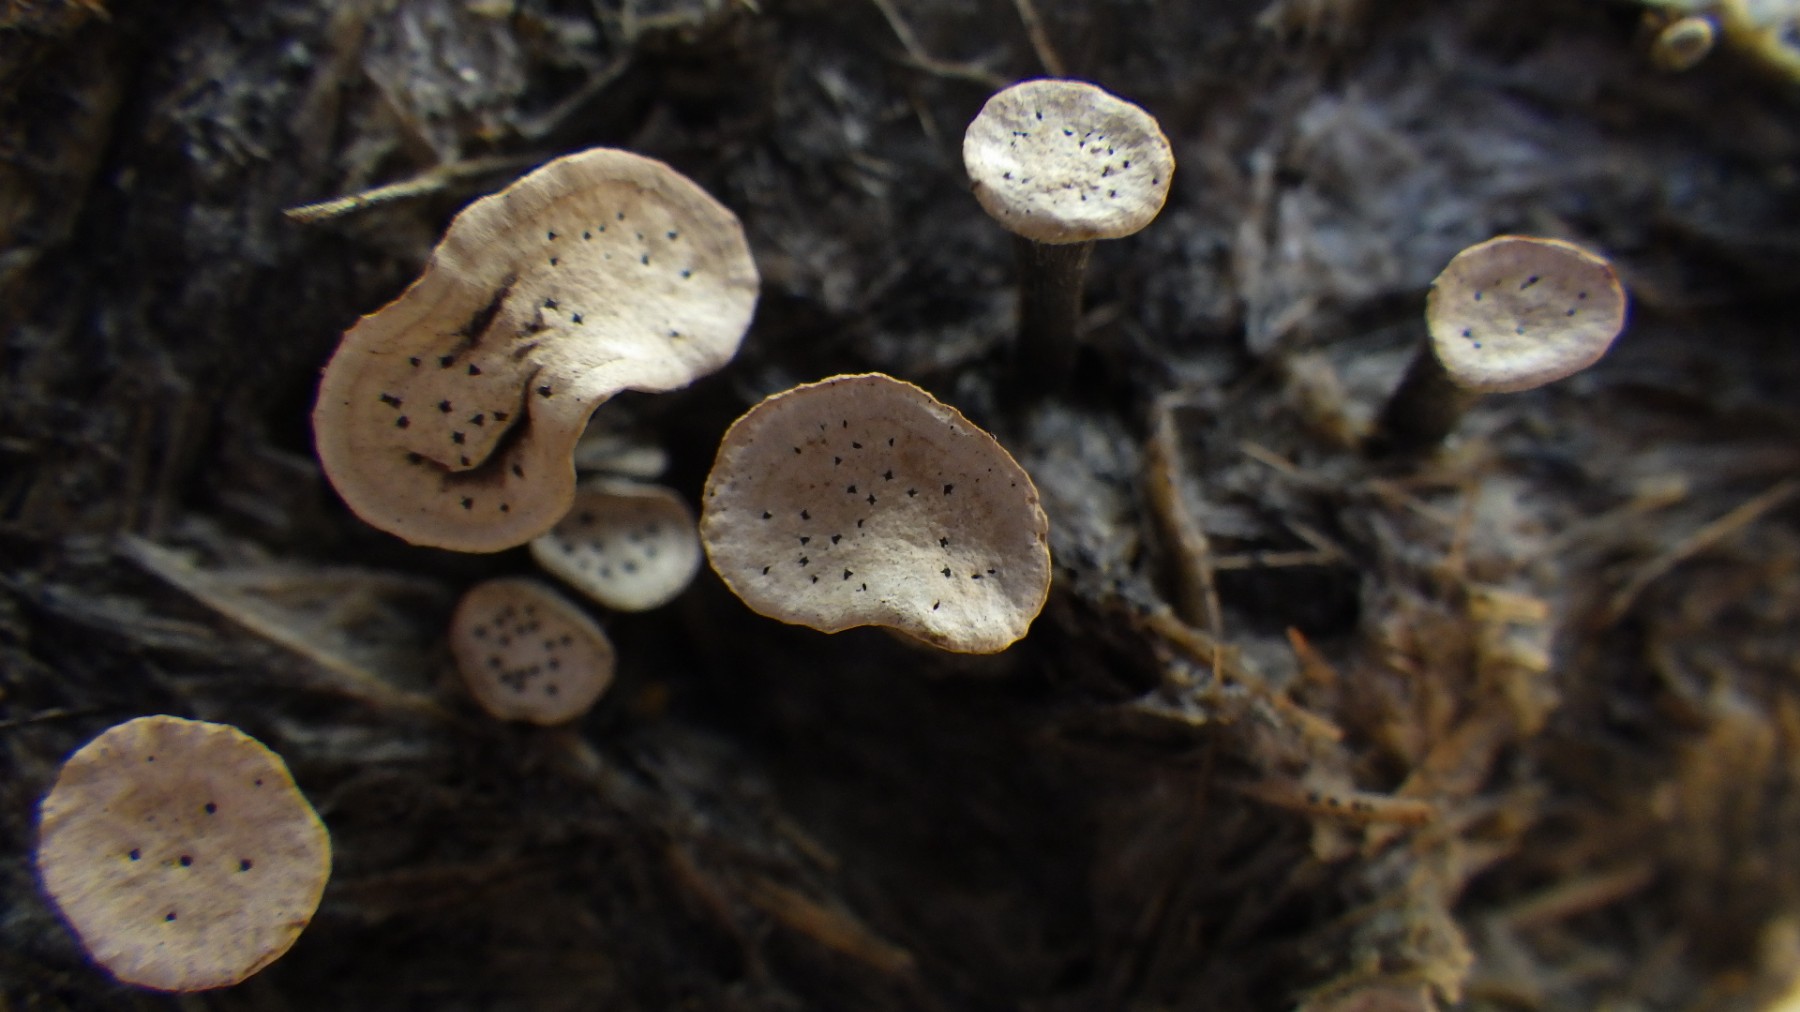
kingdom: Fungi
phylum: Ascomycota
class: Sordariomycetes
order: Xylariales
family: Xylariaceae
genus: Poronia
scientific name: Poronia punctata
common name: stor priksvamp
